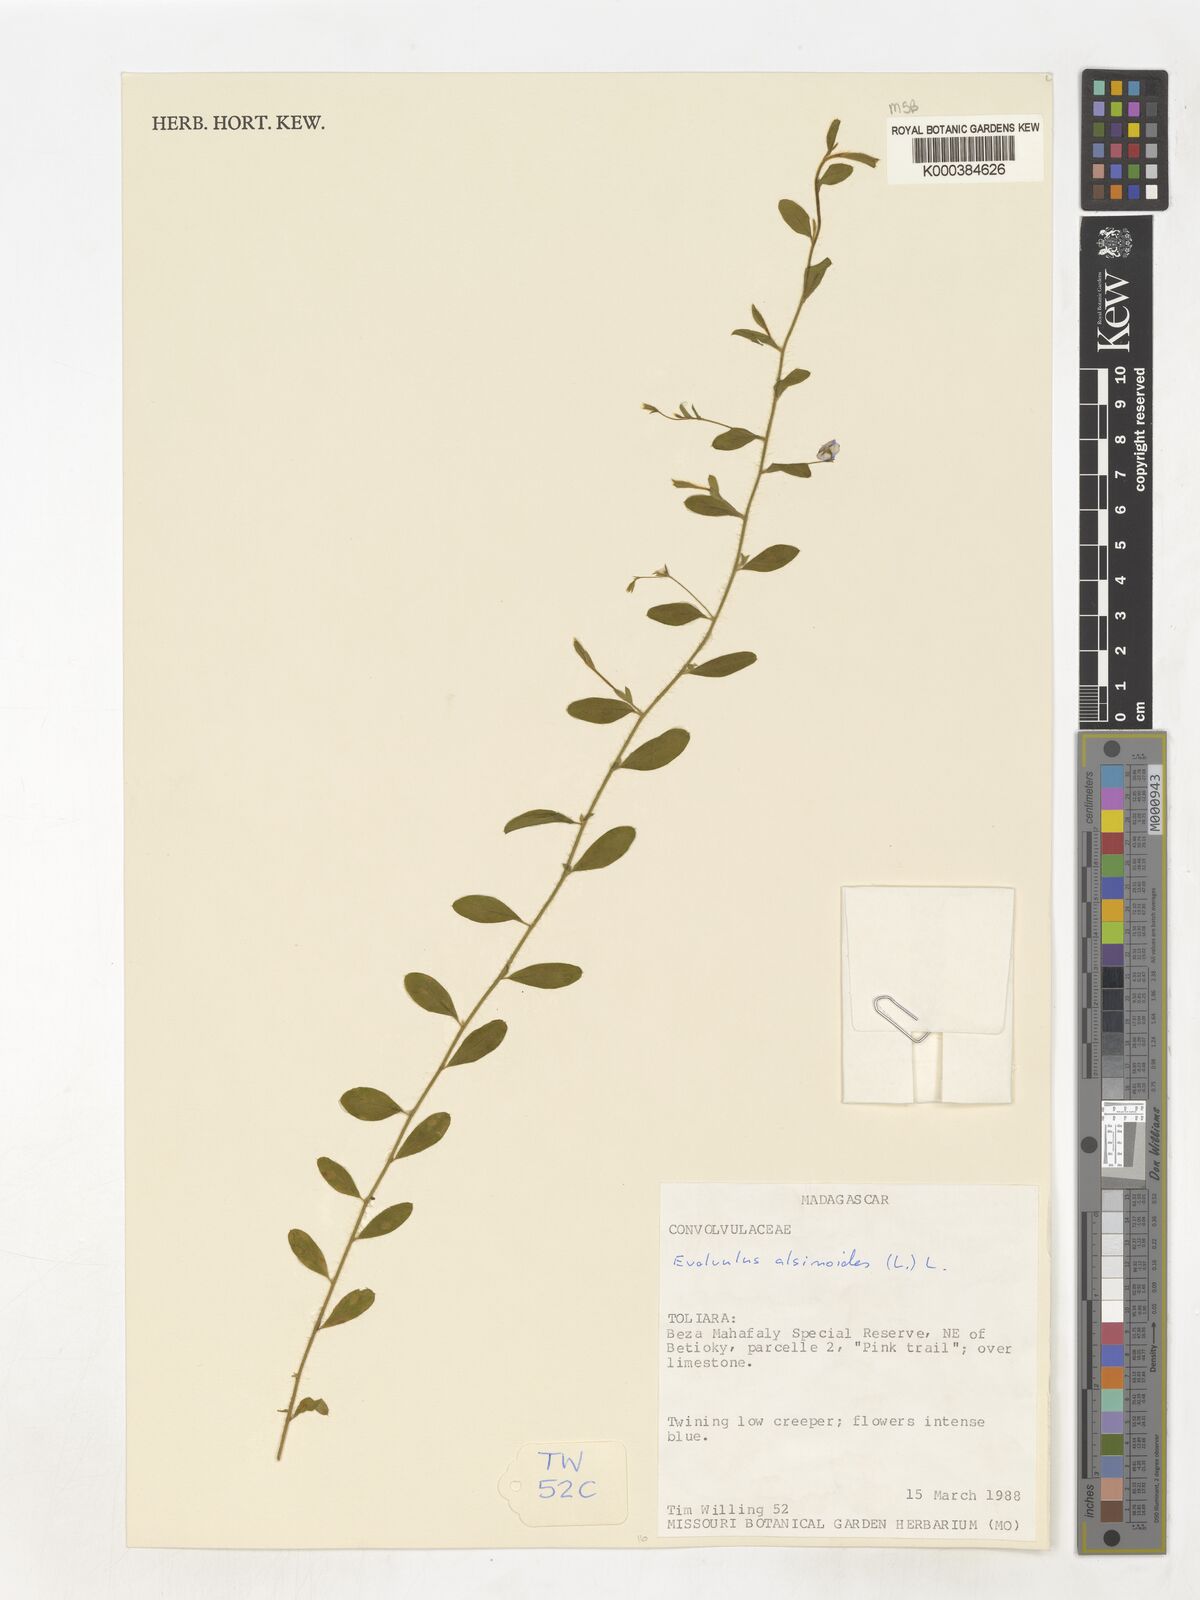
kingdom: Plantae
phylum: Tracheophyta
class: Magnoliopsida
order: Solanales
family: Convolvulaceae
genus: Evolvulus
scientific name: Evolvulus alsinoides
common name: Slender dwarf morning-glory
